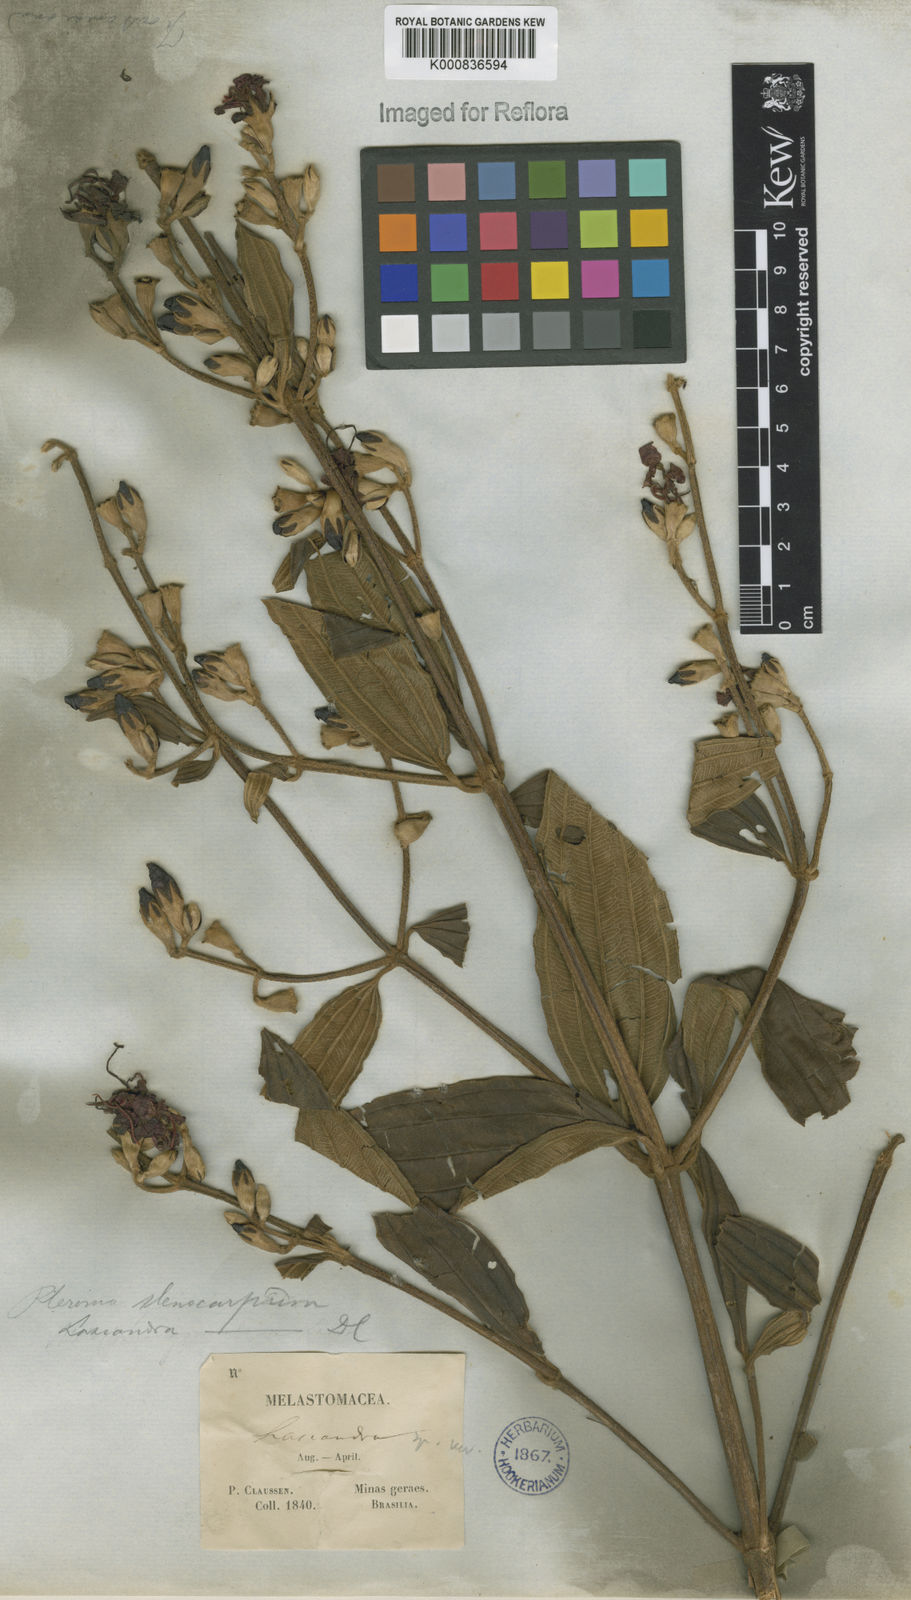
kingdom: Plantae
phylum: Tracheophyta
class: Magnoliopsida
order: Myrtales
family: Melastomataceae
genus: Pleroma
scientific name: Pleroma stenocarpum
